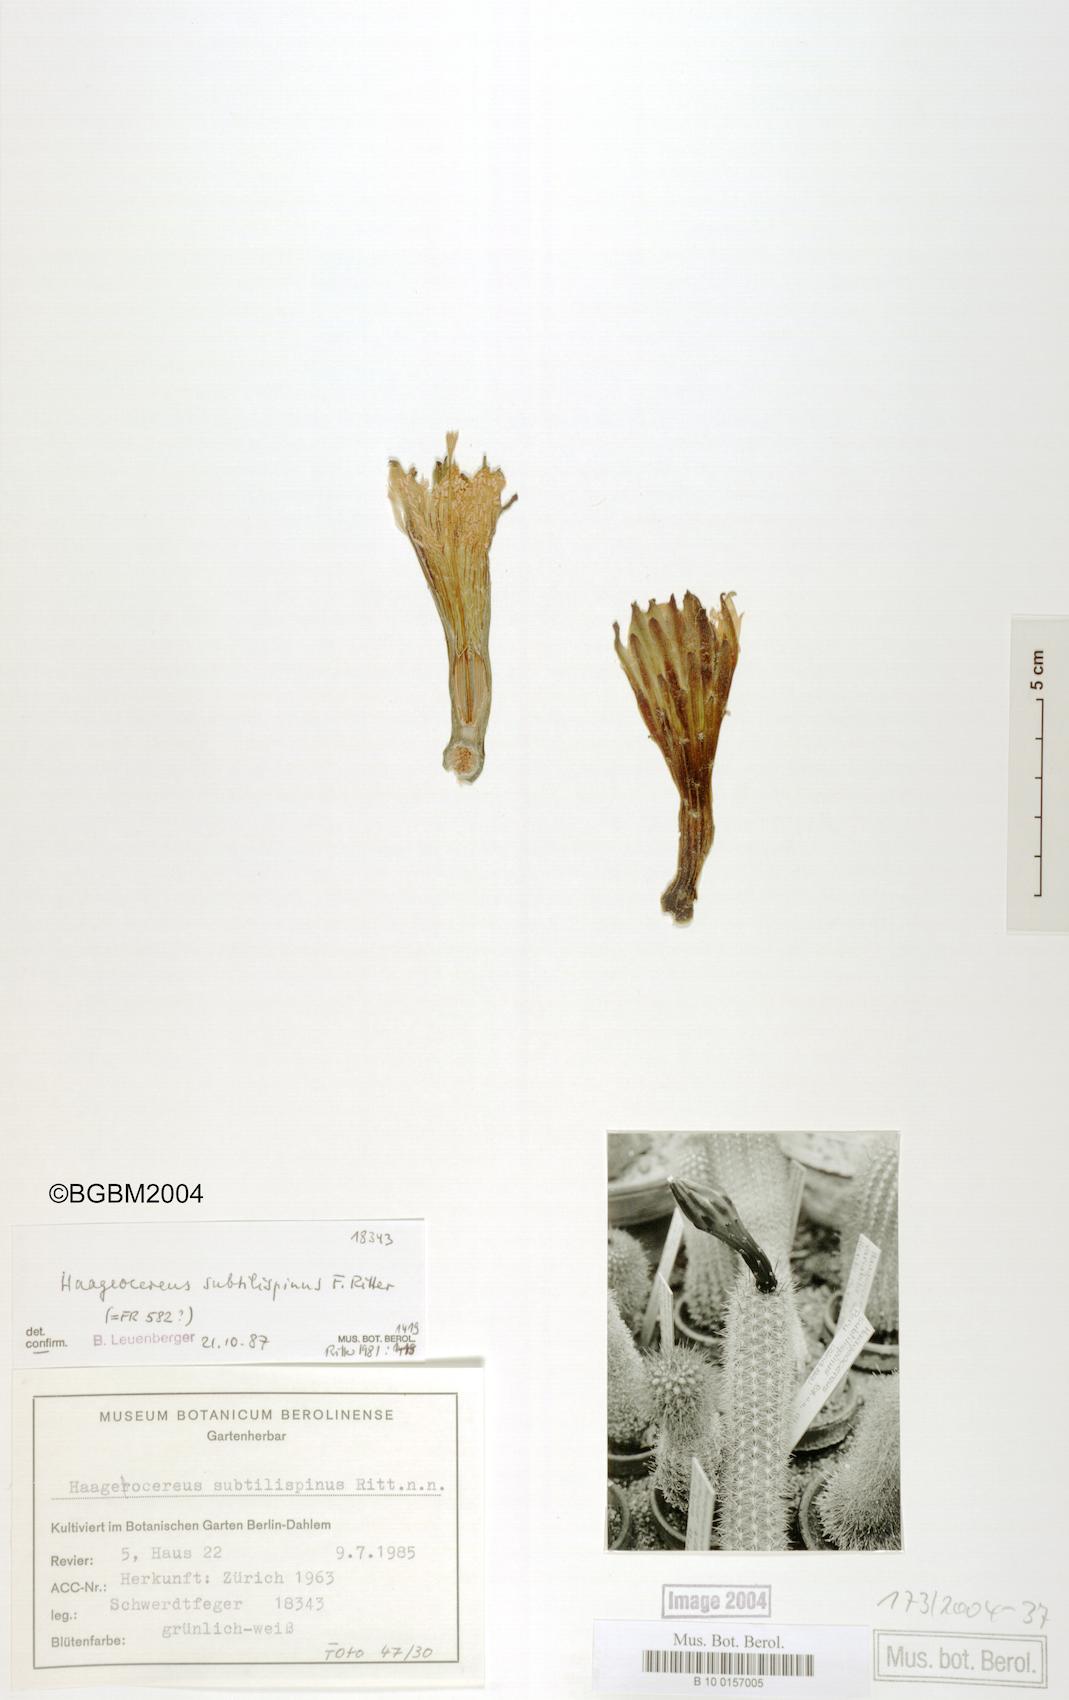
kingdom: Plantae
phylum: Tracheophyta
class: Magnoliopsida
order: Caryophyllales
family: Cactaceae
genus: Haageocereus
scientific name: Haageocereus decumbens
